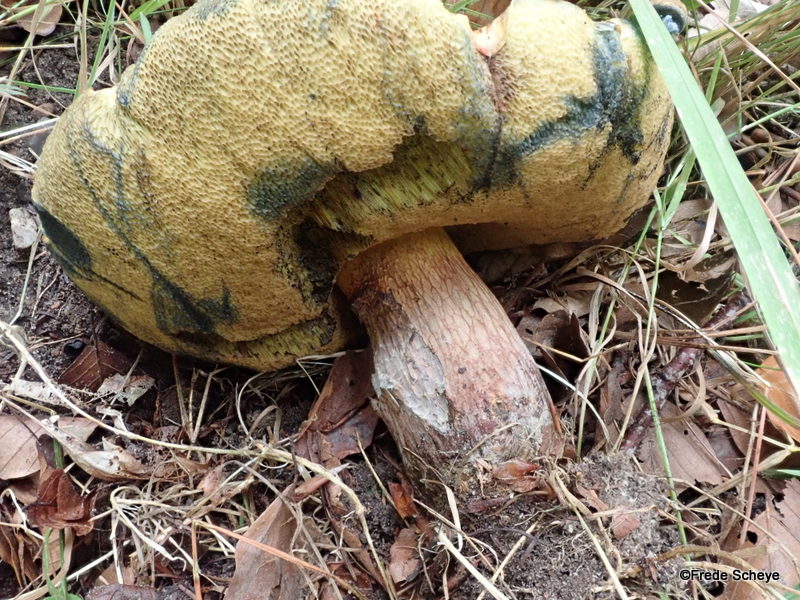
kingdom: Fungi
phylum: Basidiomycota
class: Agaricomycetes
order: Boletales
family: Boletaceae
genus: Suillellus
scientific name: Suillellus luridus
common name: netstokket indigorørhat
